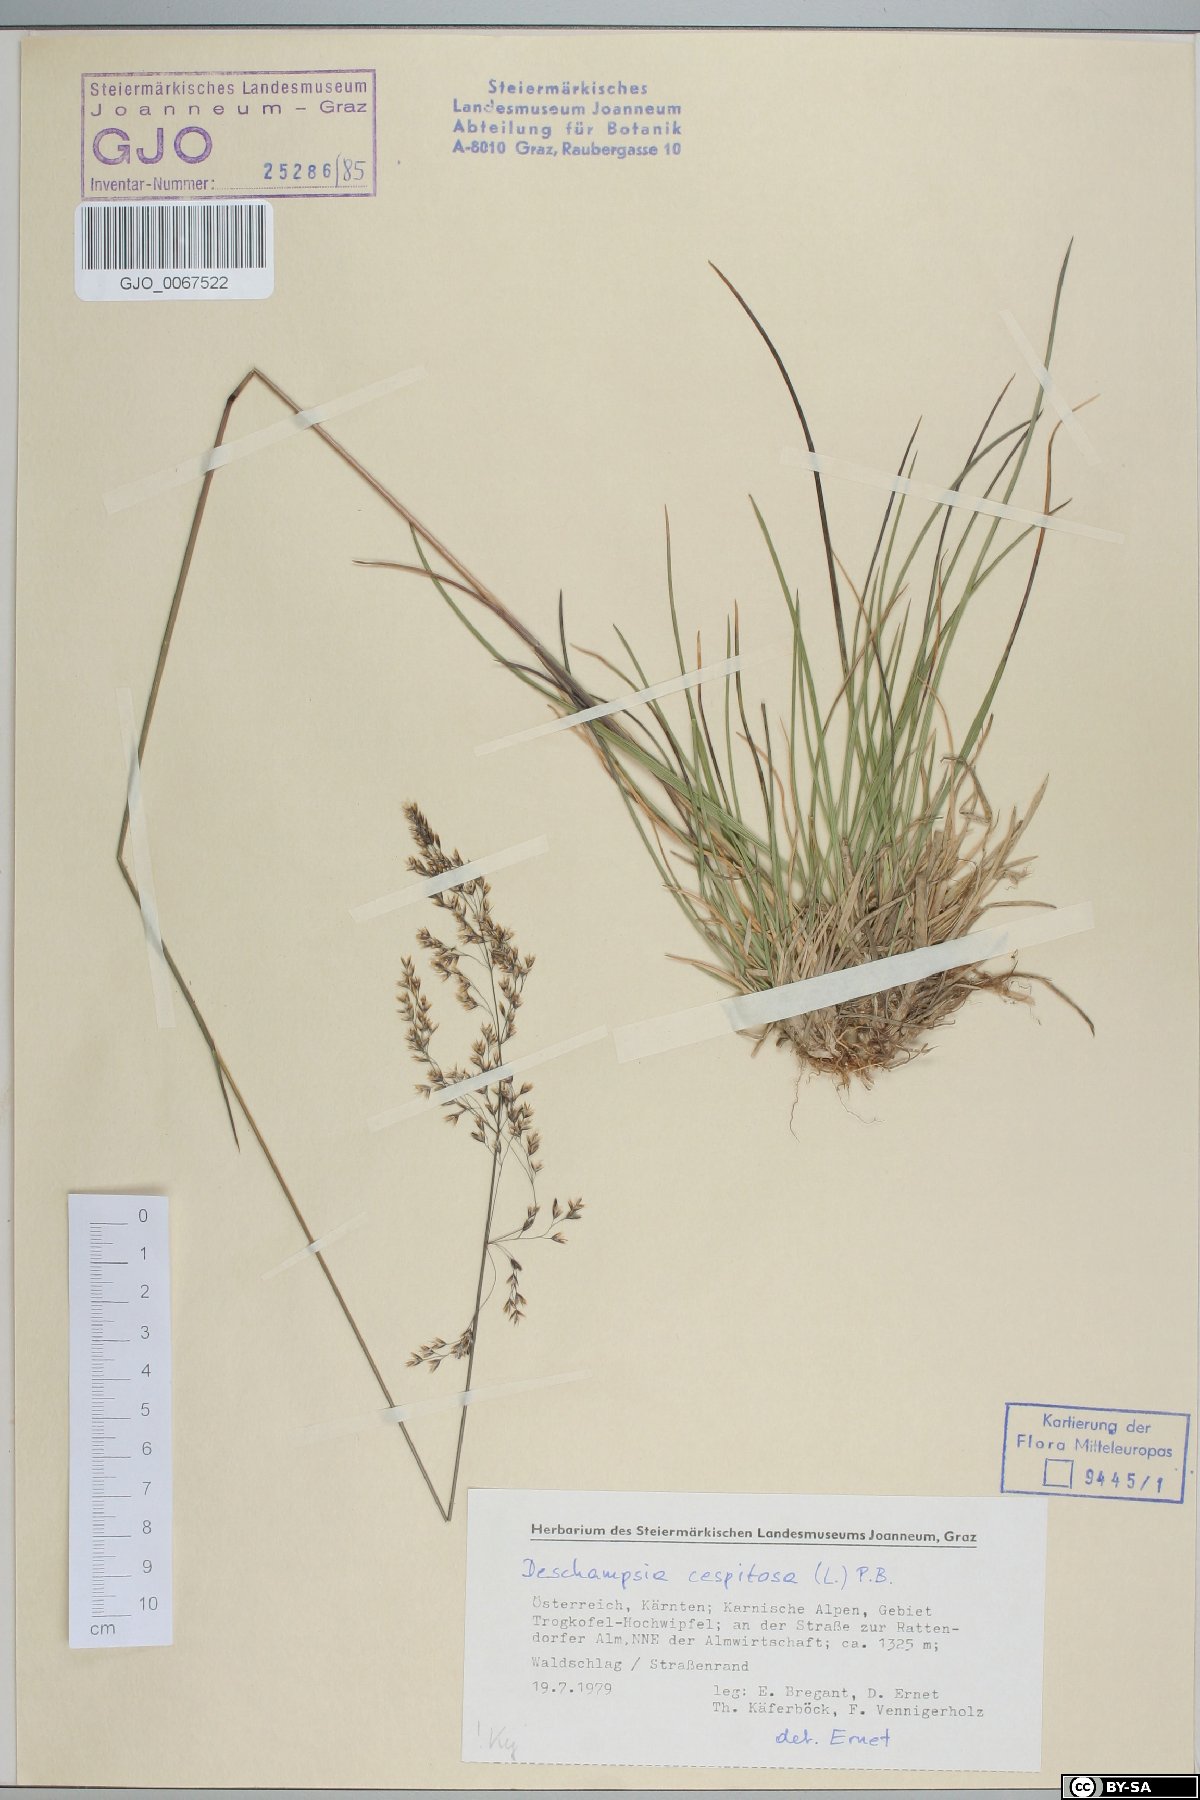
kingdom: Plantae
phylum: Tracheophyta
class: Liliopsida
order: Poales
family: Poaceae
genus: Deschampsia
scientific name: Deschampsia cespitosa
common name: Tufted hair-grass
